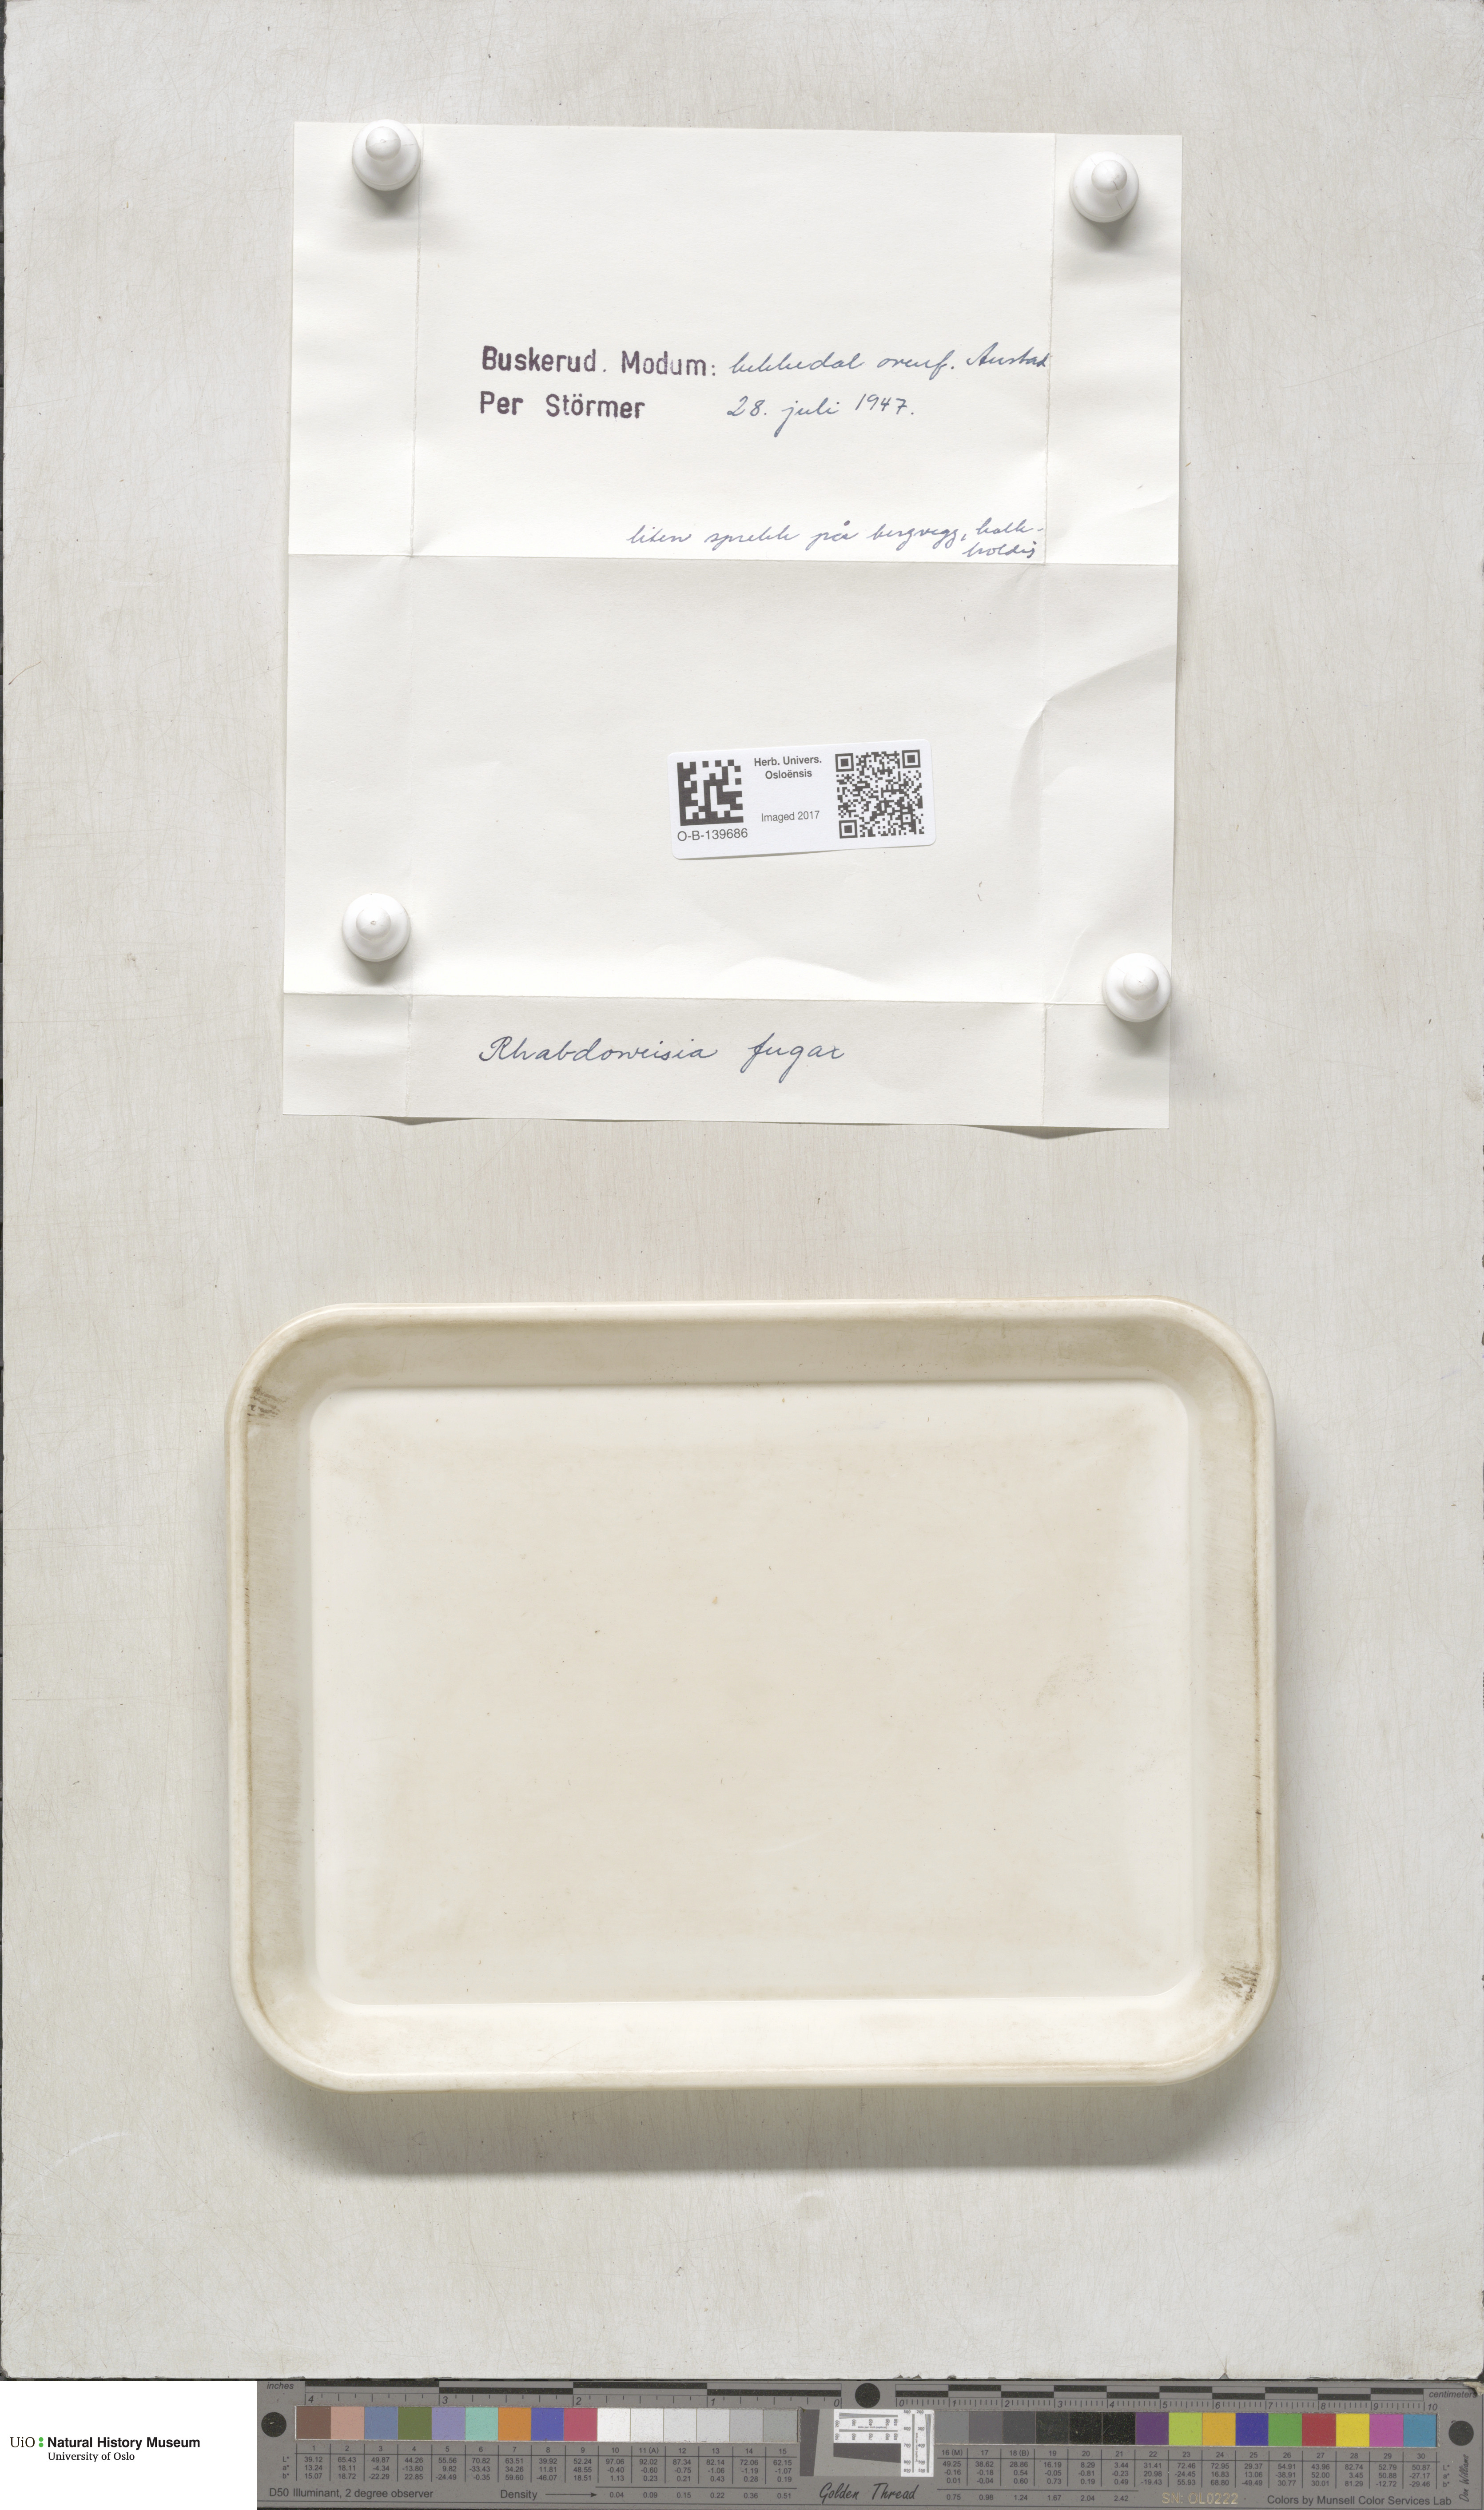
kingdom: Plantae
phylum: Bryophyta
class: Bryopsida
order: Dicranales
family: Rhabdoweisiaceae
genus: Rhabdoweisia
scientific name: Rhabdoweisia fugax
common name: Dwarf streak-moss
